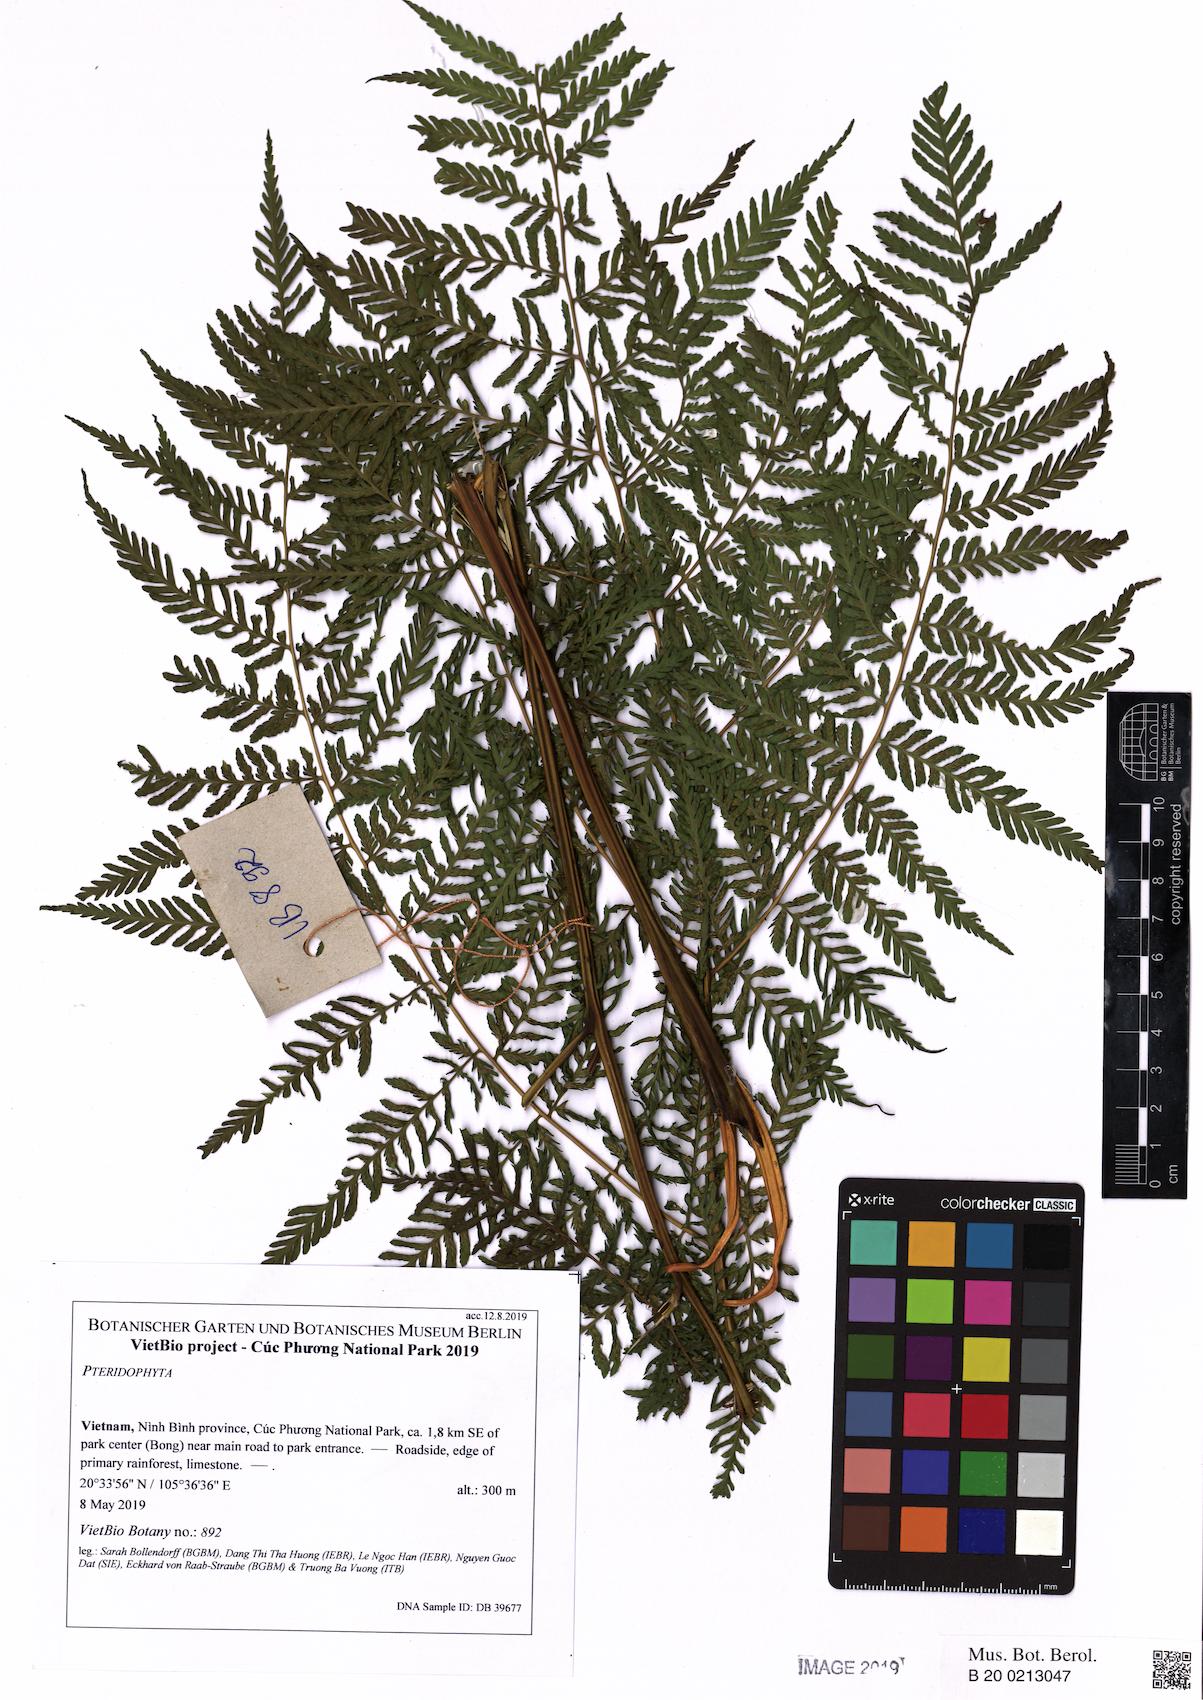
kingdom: Plantae
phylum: Tracheophyta
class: Polypodiopsida
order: Polypodiales
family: Athyriaceae
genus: Diplazium
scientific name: Diplazium pseudosetigerum
